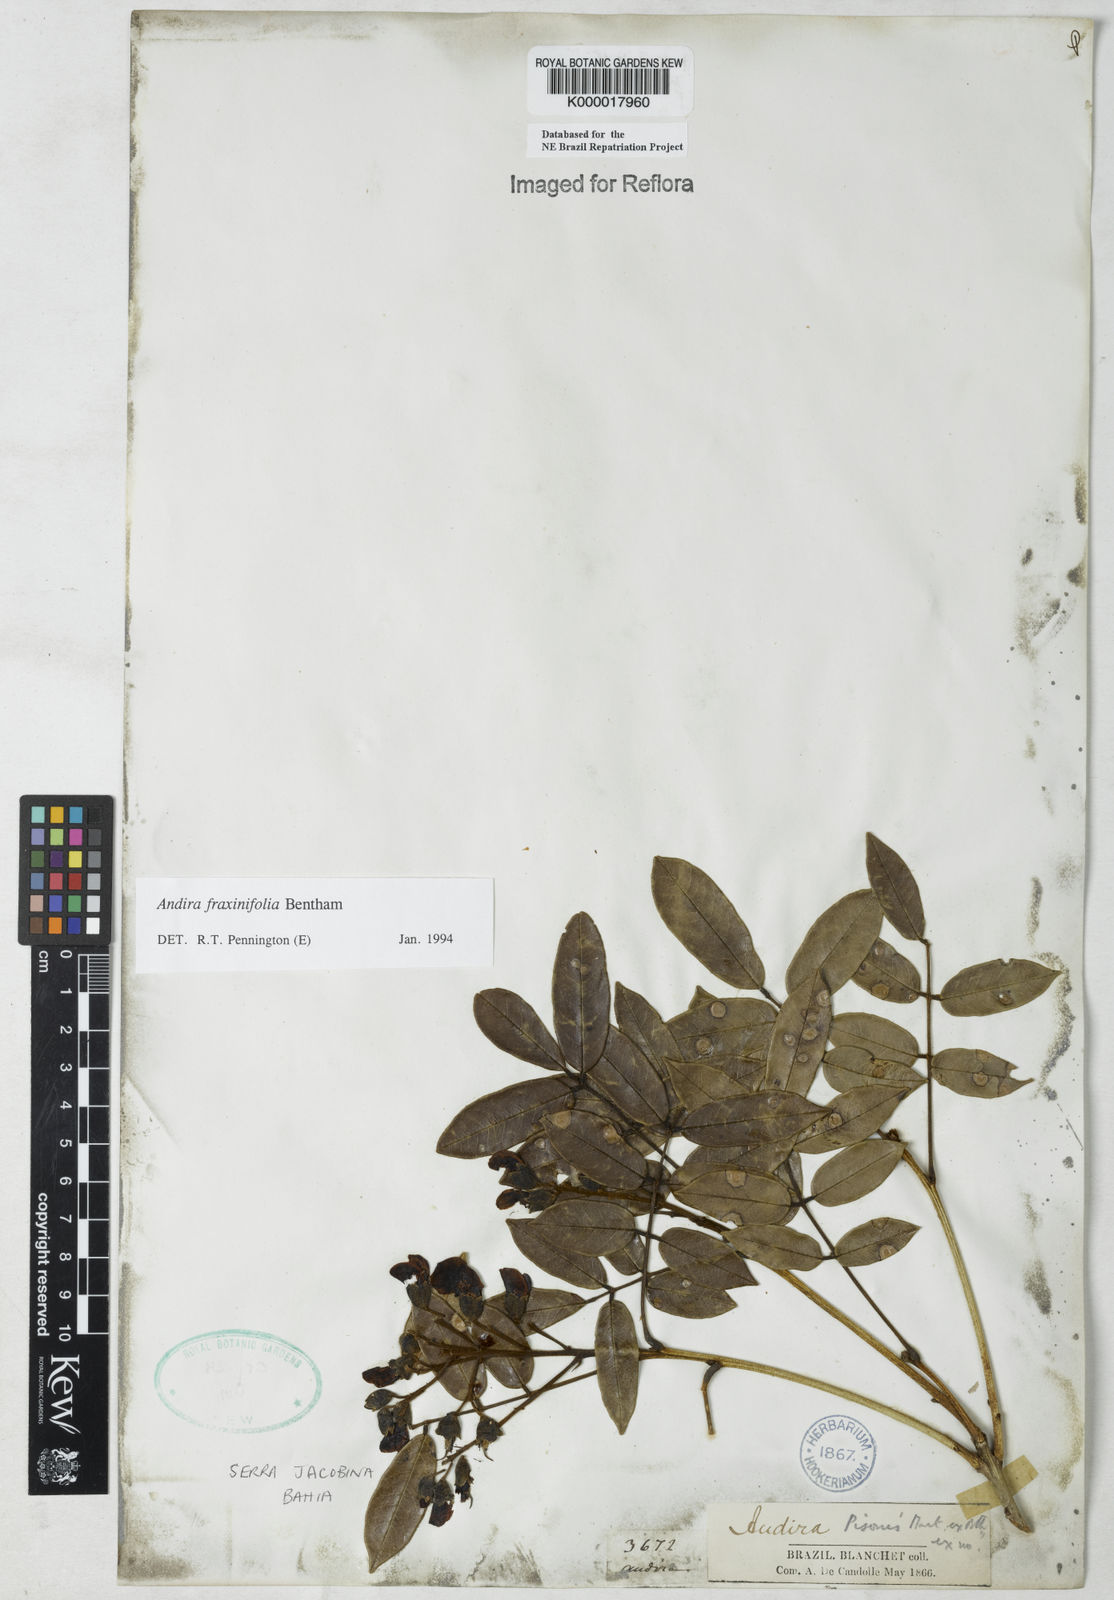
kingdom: Plantae
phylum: Tracheophyta
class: Magnoliopsida
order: Fabales
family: Fabaceae
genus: Andira
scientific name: Andira fraxinifolia
